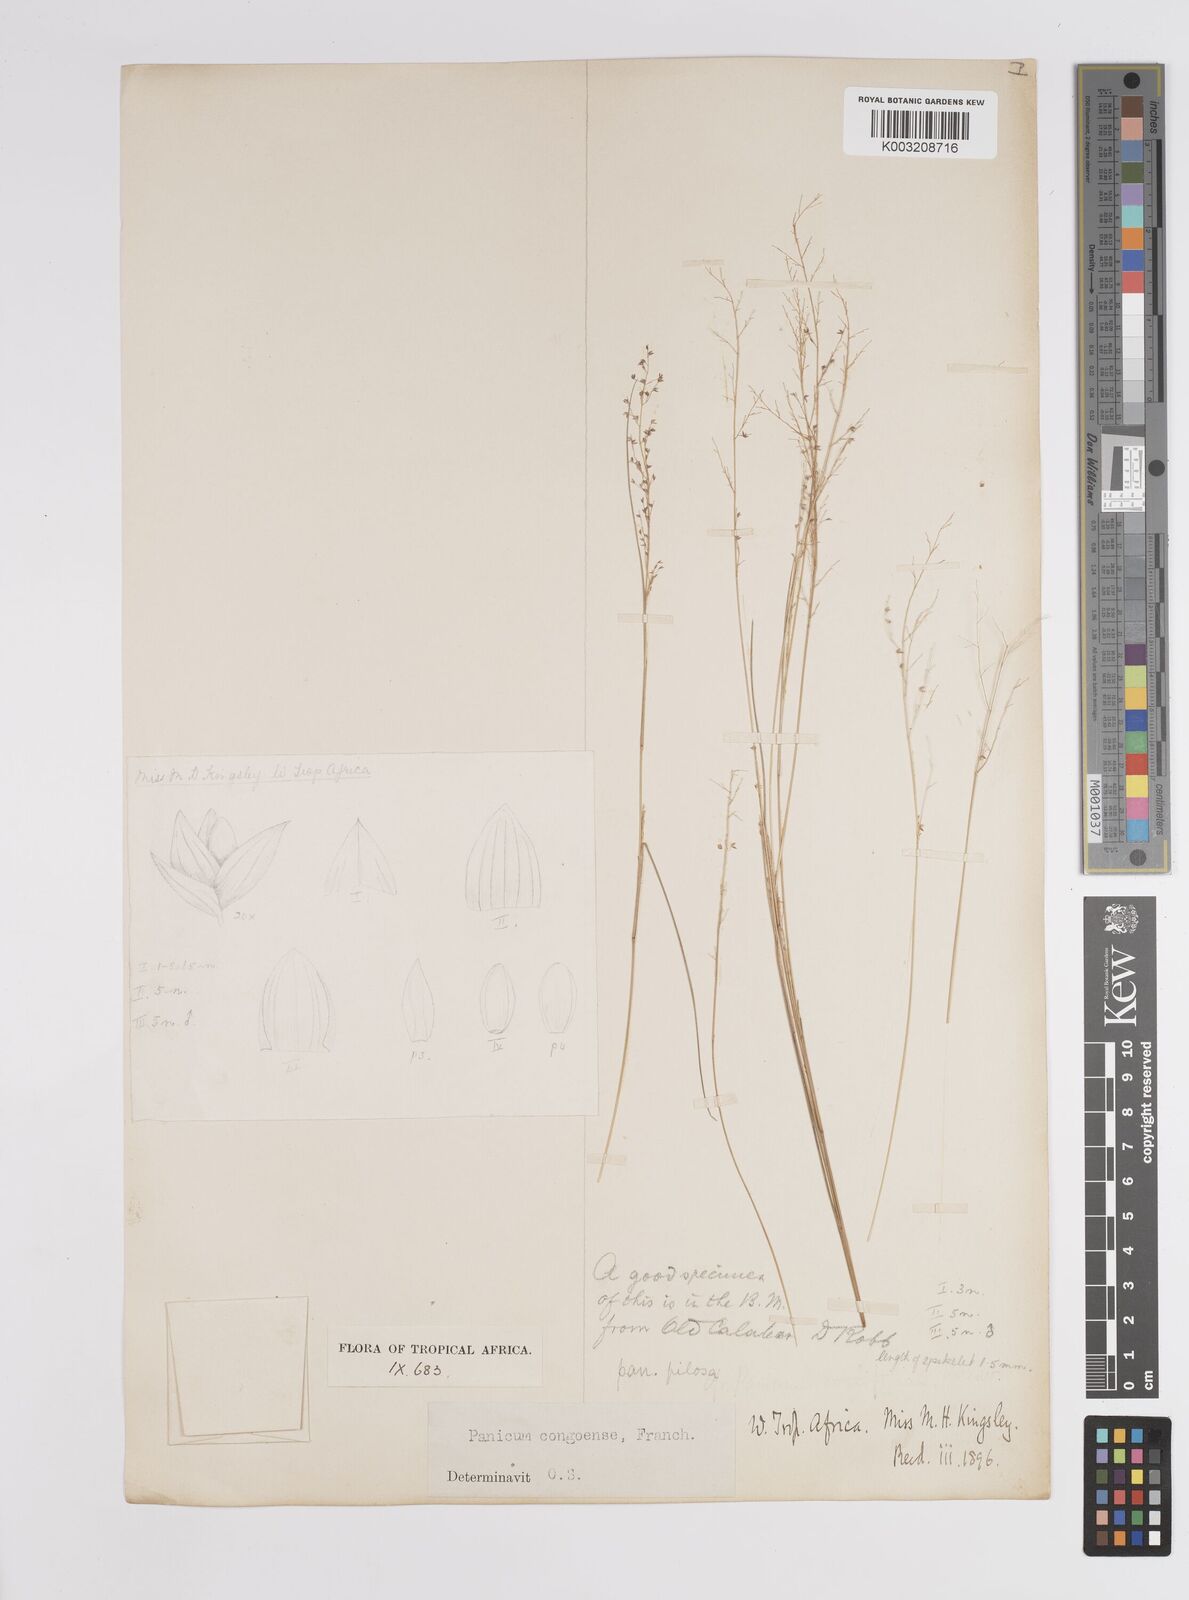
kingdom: Plantae
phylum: Tracheophyta
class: Liliopsida
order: Poales
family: Poaceae
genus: Panicum
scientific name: Panicum congoense
